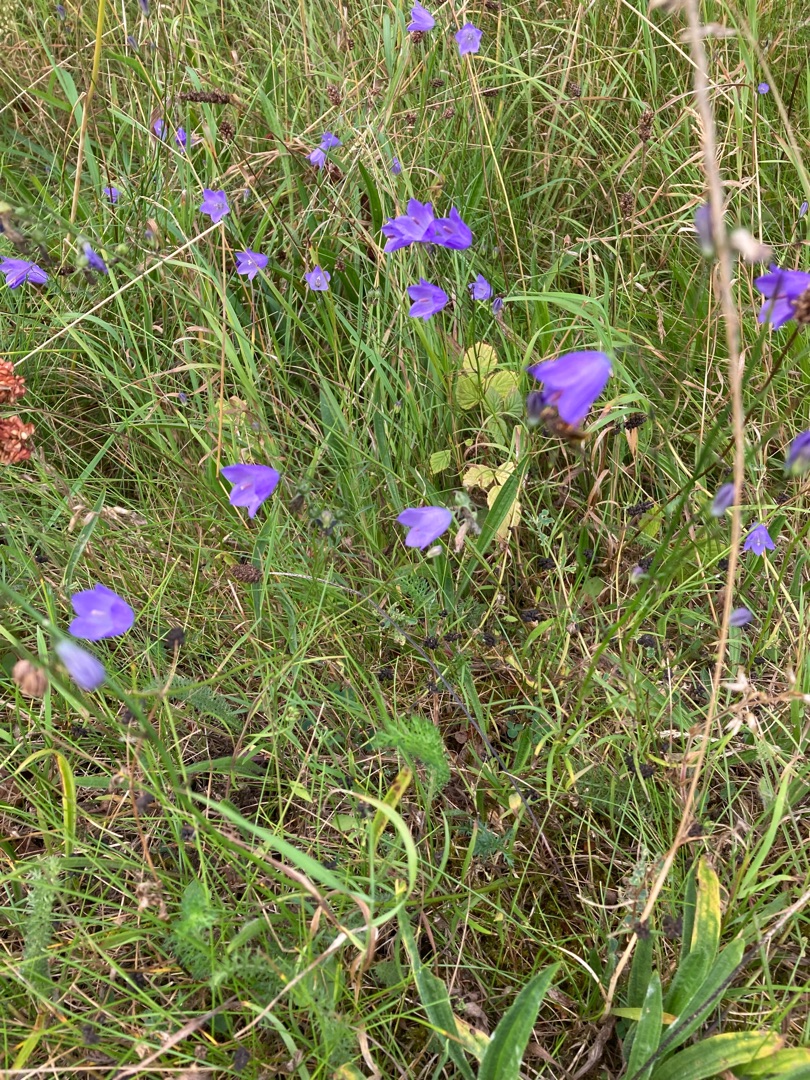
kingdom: Plantae
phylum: Tracheophyta
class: Magnoliopsida
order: Asterales
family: Campanulaceae
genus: Campanula
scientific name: Campanula rotundifolia
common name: Liden klokke
